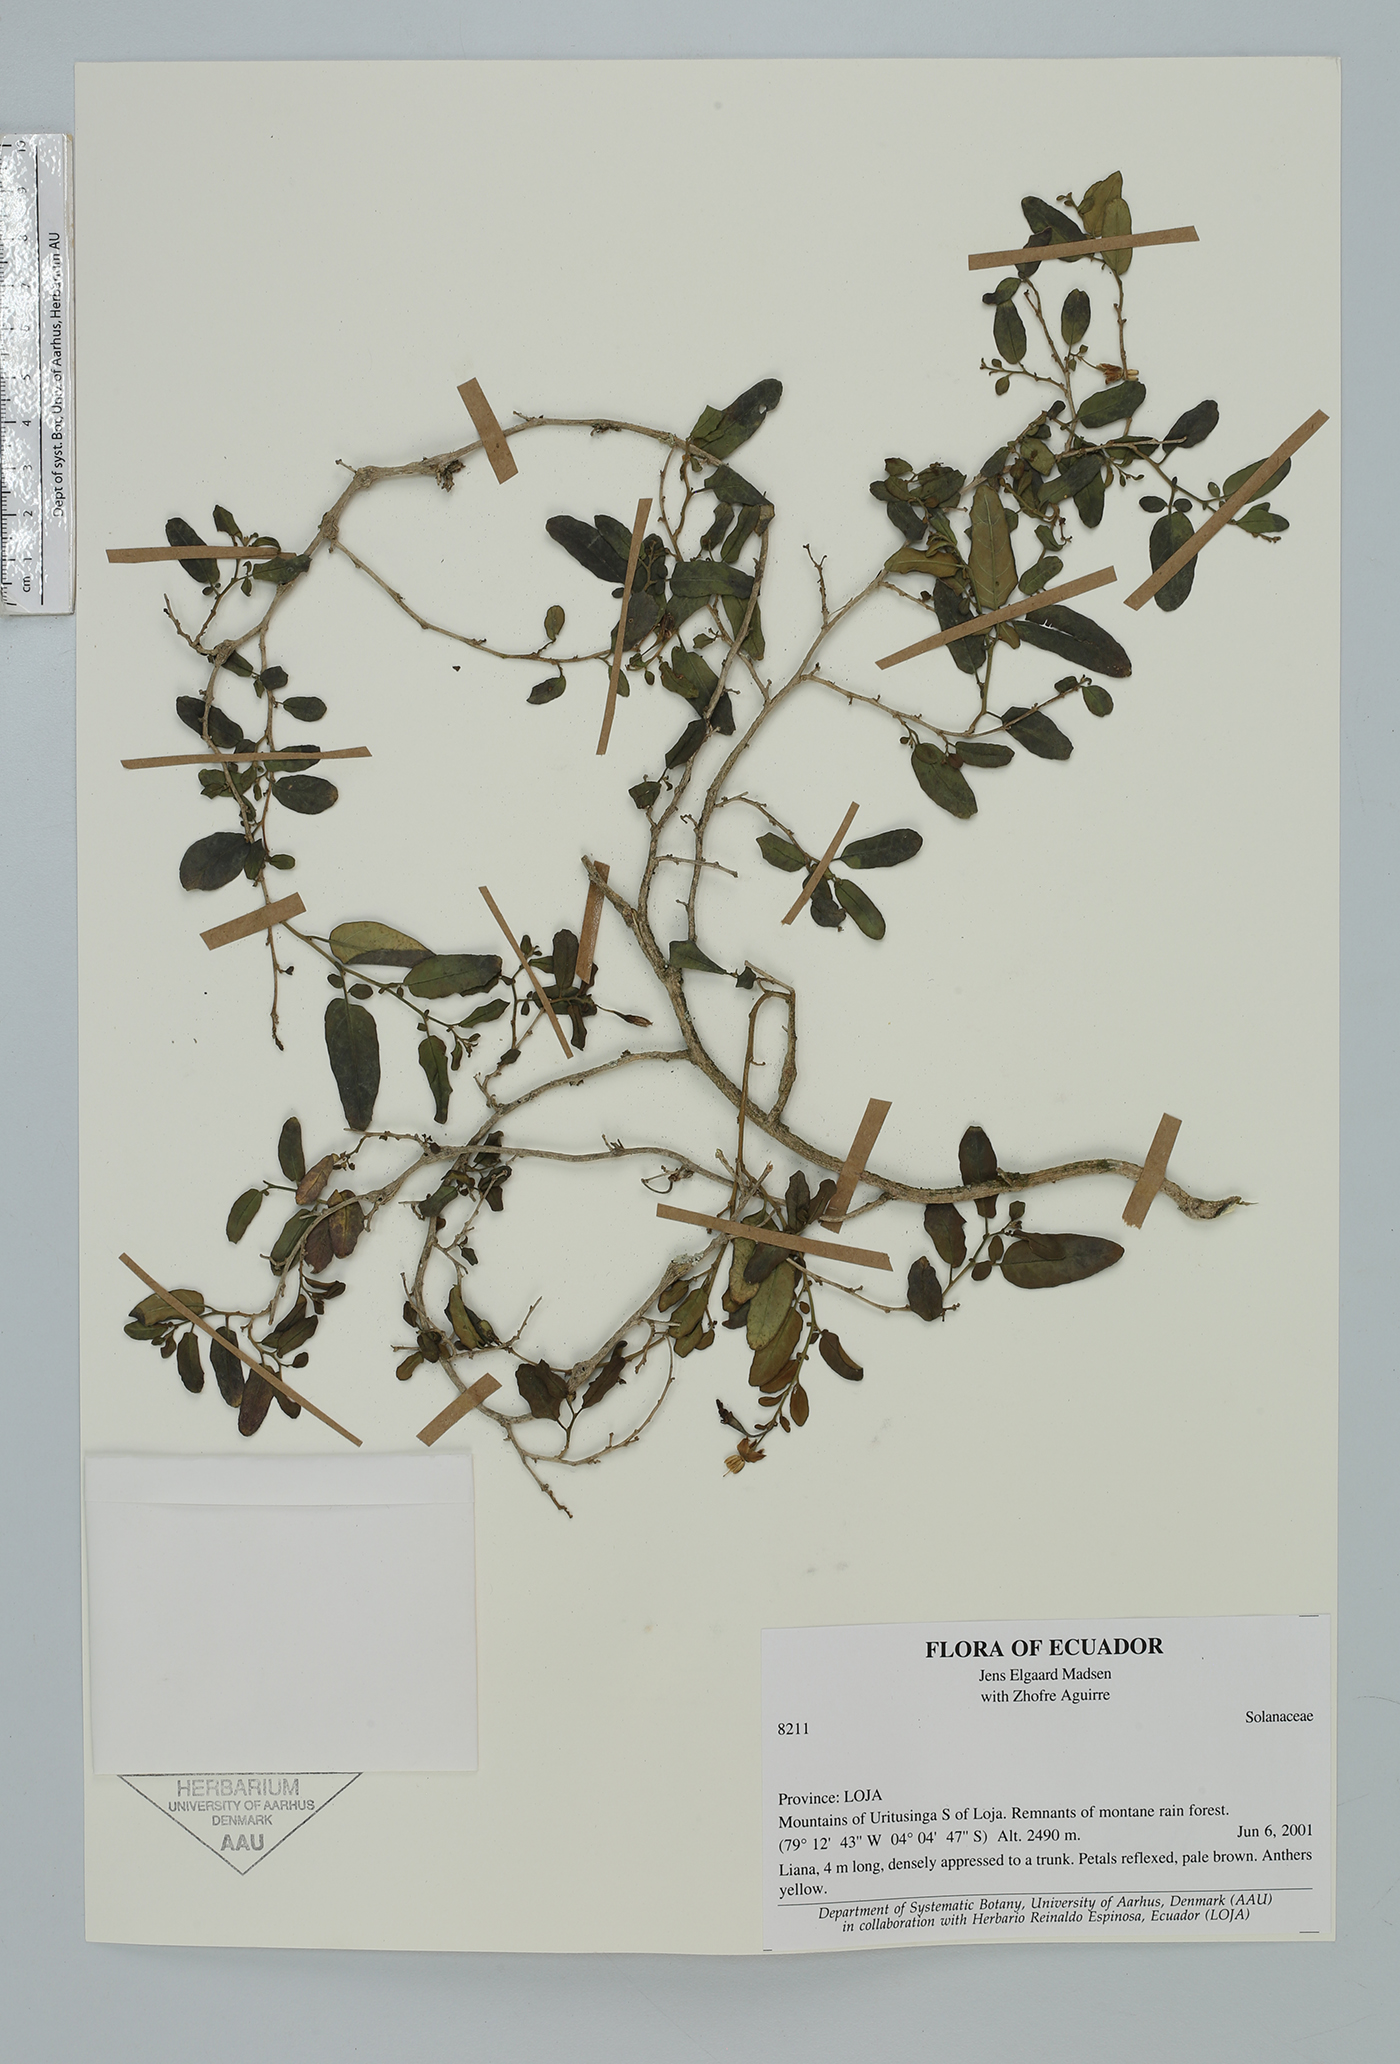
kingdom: Plantae
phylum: Tracheophyta
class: Magnoliopsida
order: Solanales
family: Solanaceae
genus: Solanum
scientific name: Solanum
